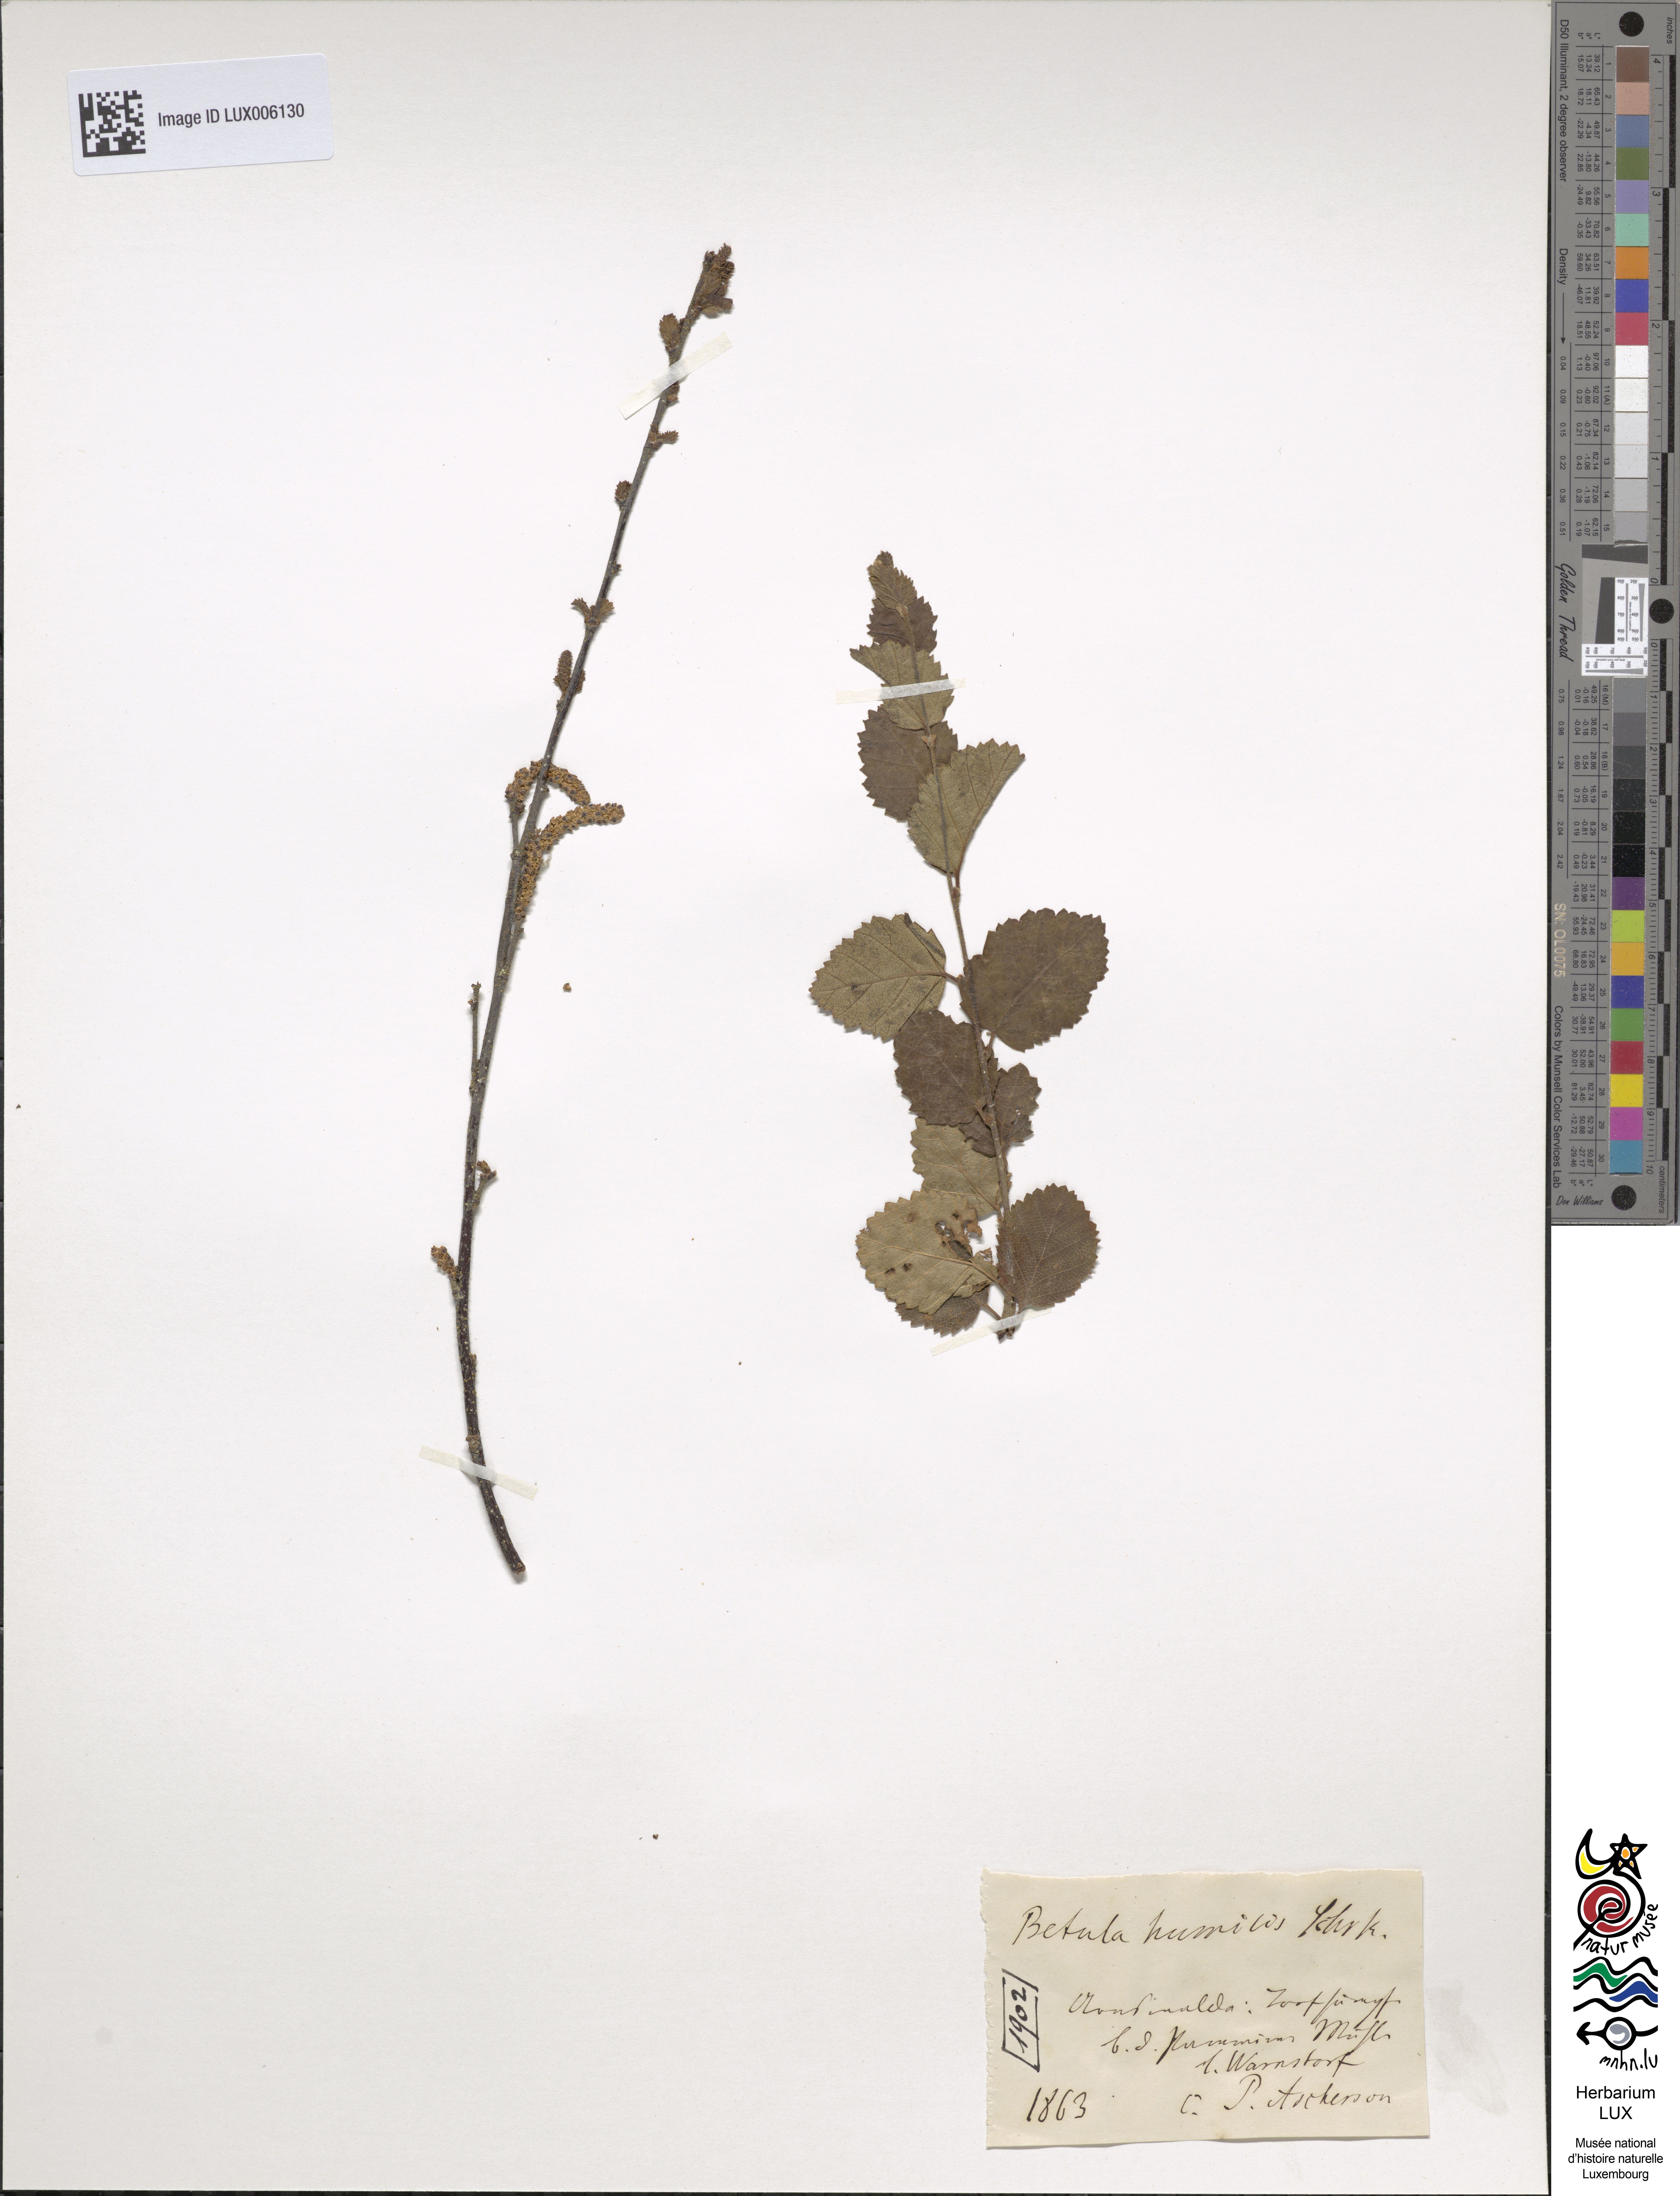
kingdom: Plantae
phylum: Tracheophyta
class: Magnoliopsida
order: Fagales
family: Betulaceae
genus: Betula
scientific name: Betula humilis
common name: Shrubby birch
